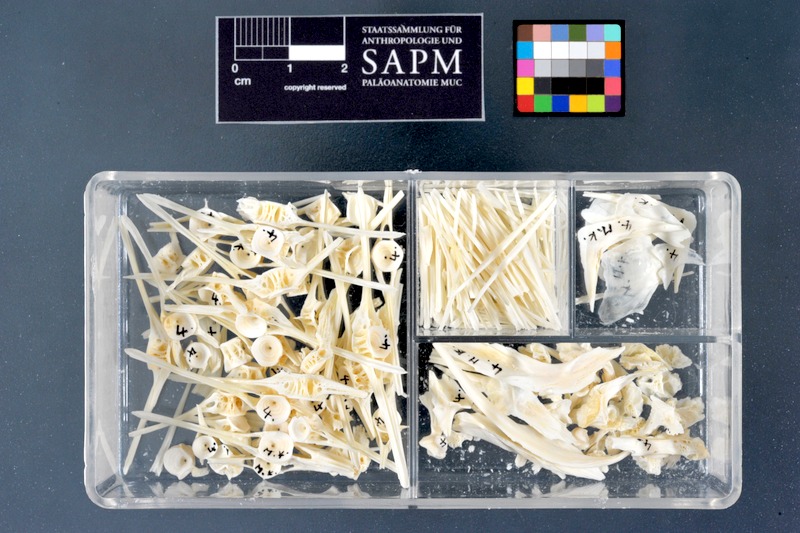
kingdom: Animalia
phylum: Chordata
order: Pleuronectiformes
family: Pleuronectidae
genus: Microstomus
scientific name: Microstomus kitt
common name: Lemon sole
